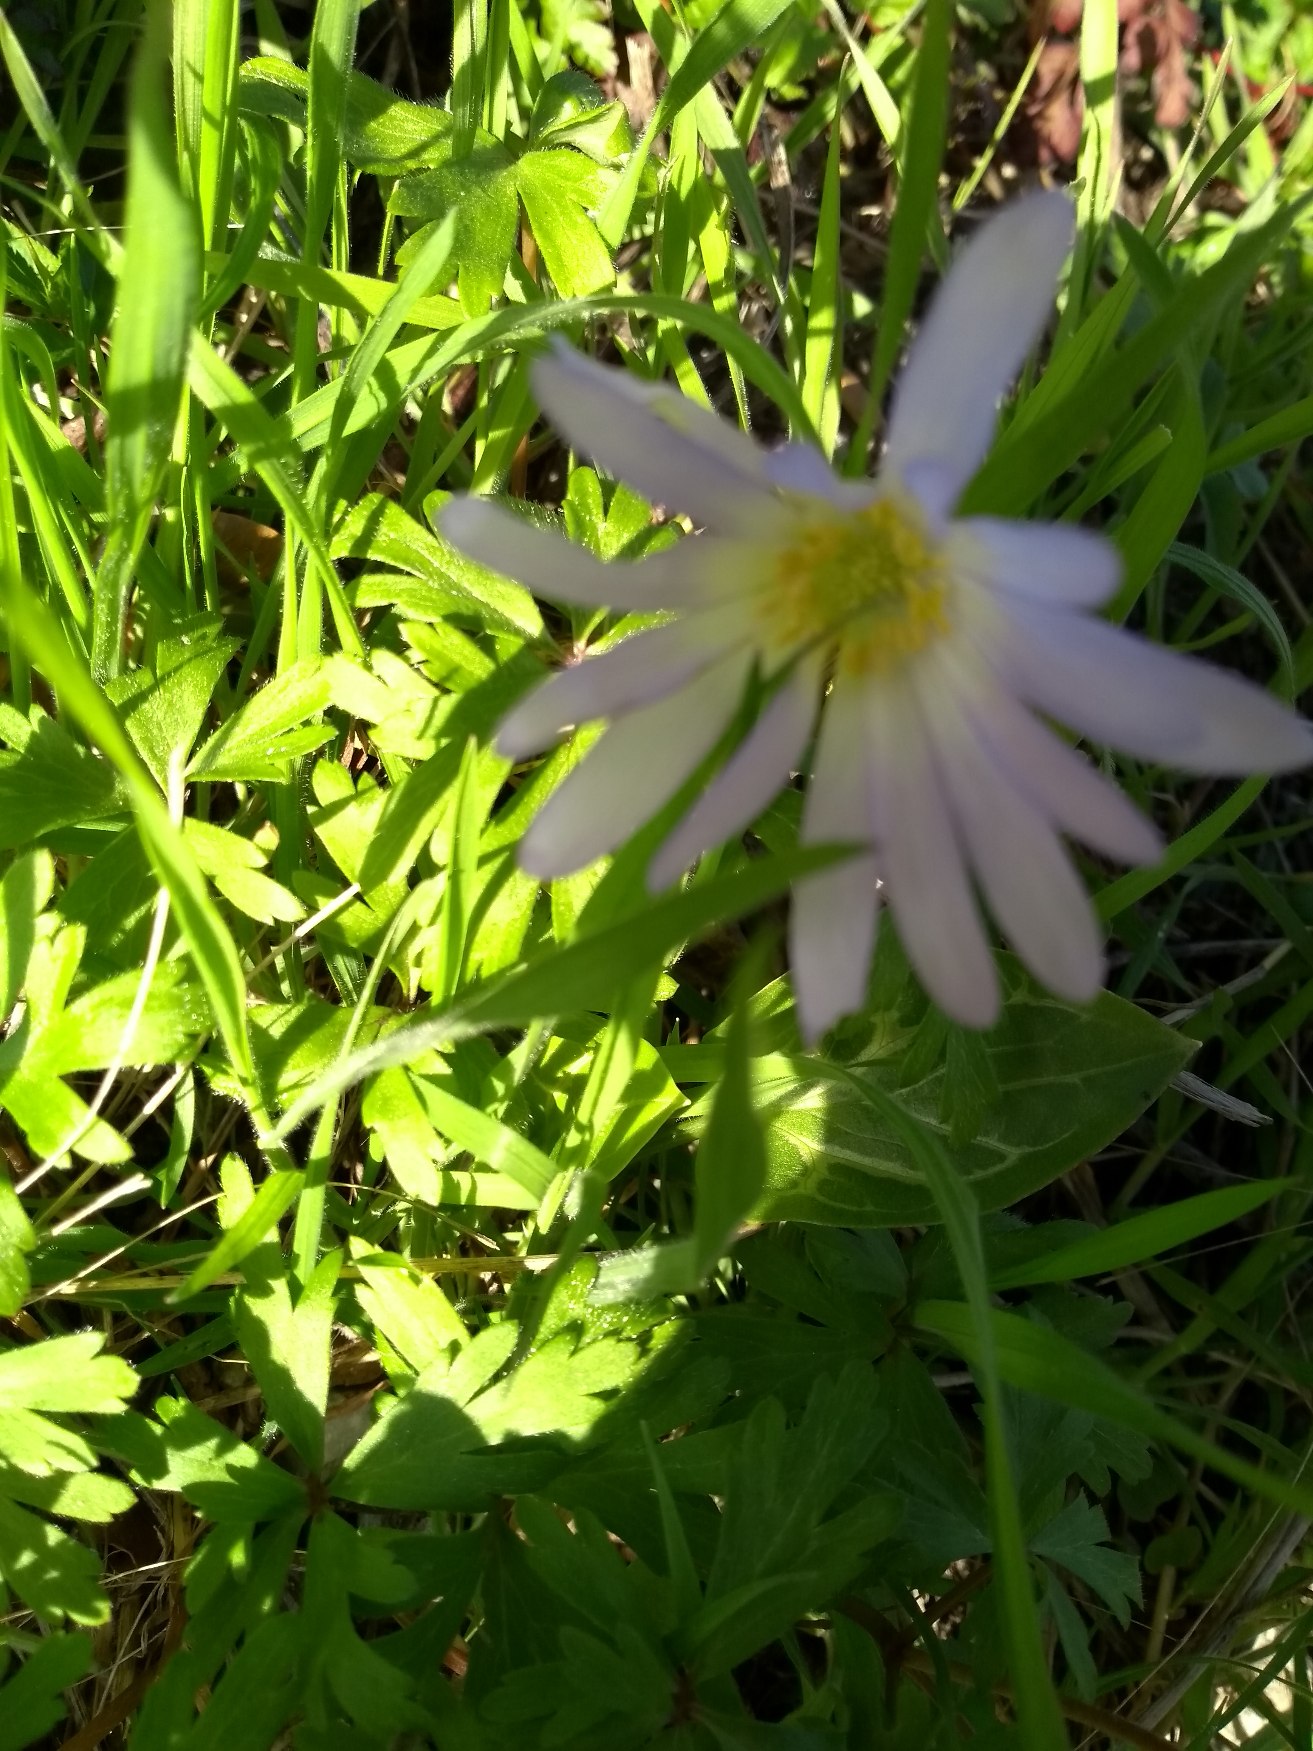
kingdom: Plantae
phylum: Tracheophyta
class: Magnoliopsida
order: Ranunculales
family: Ranunculaceae
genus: Anemone
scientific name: Anemone blanda
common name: Balkan-anemone
